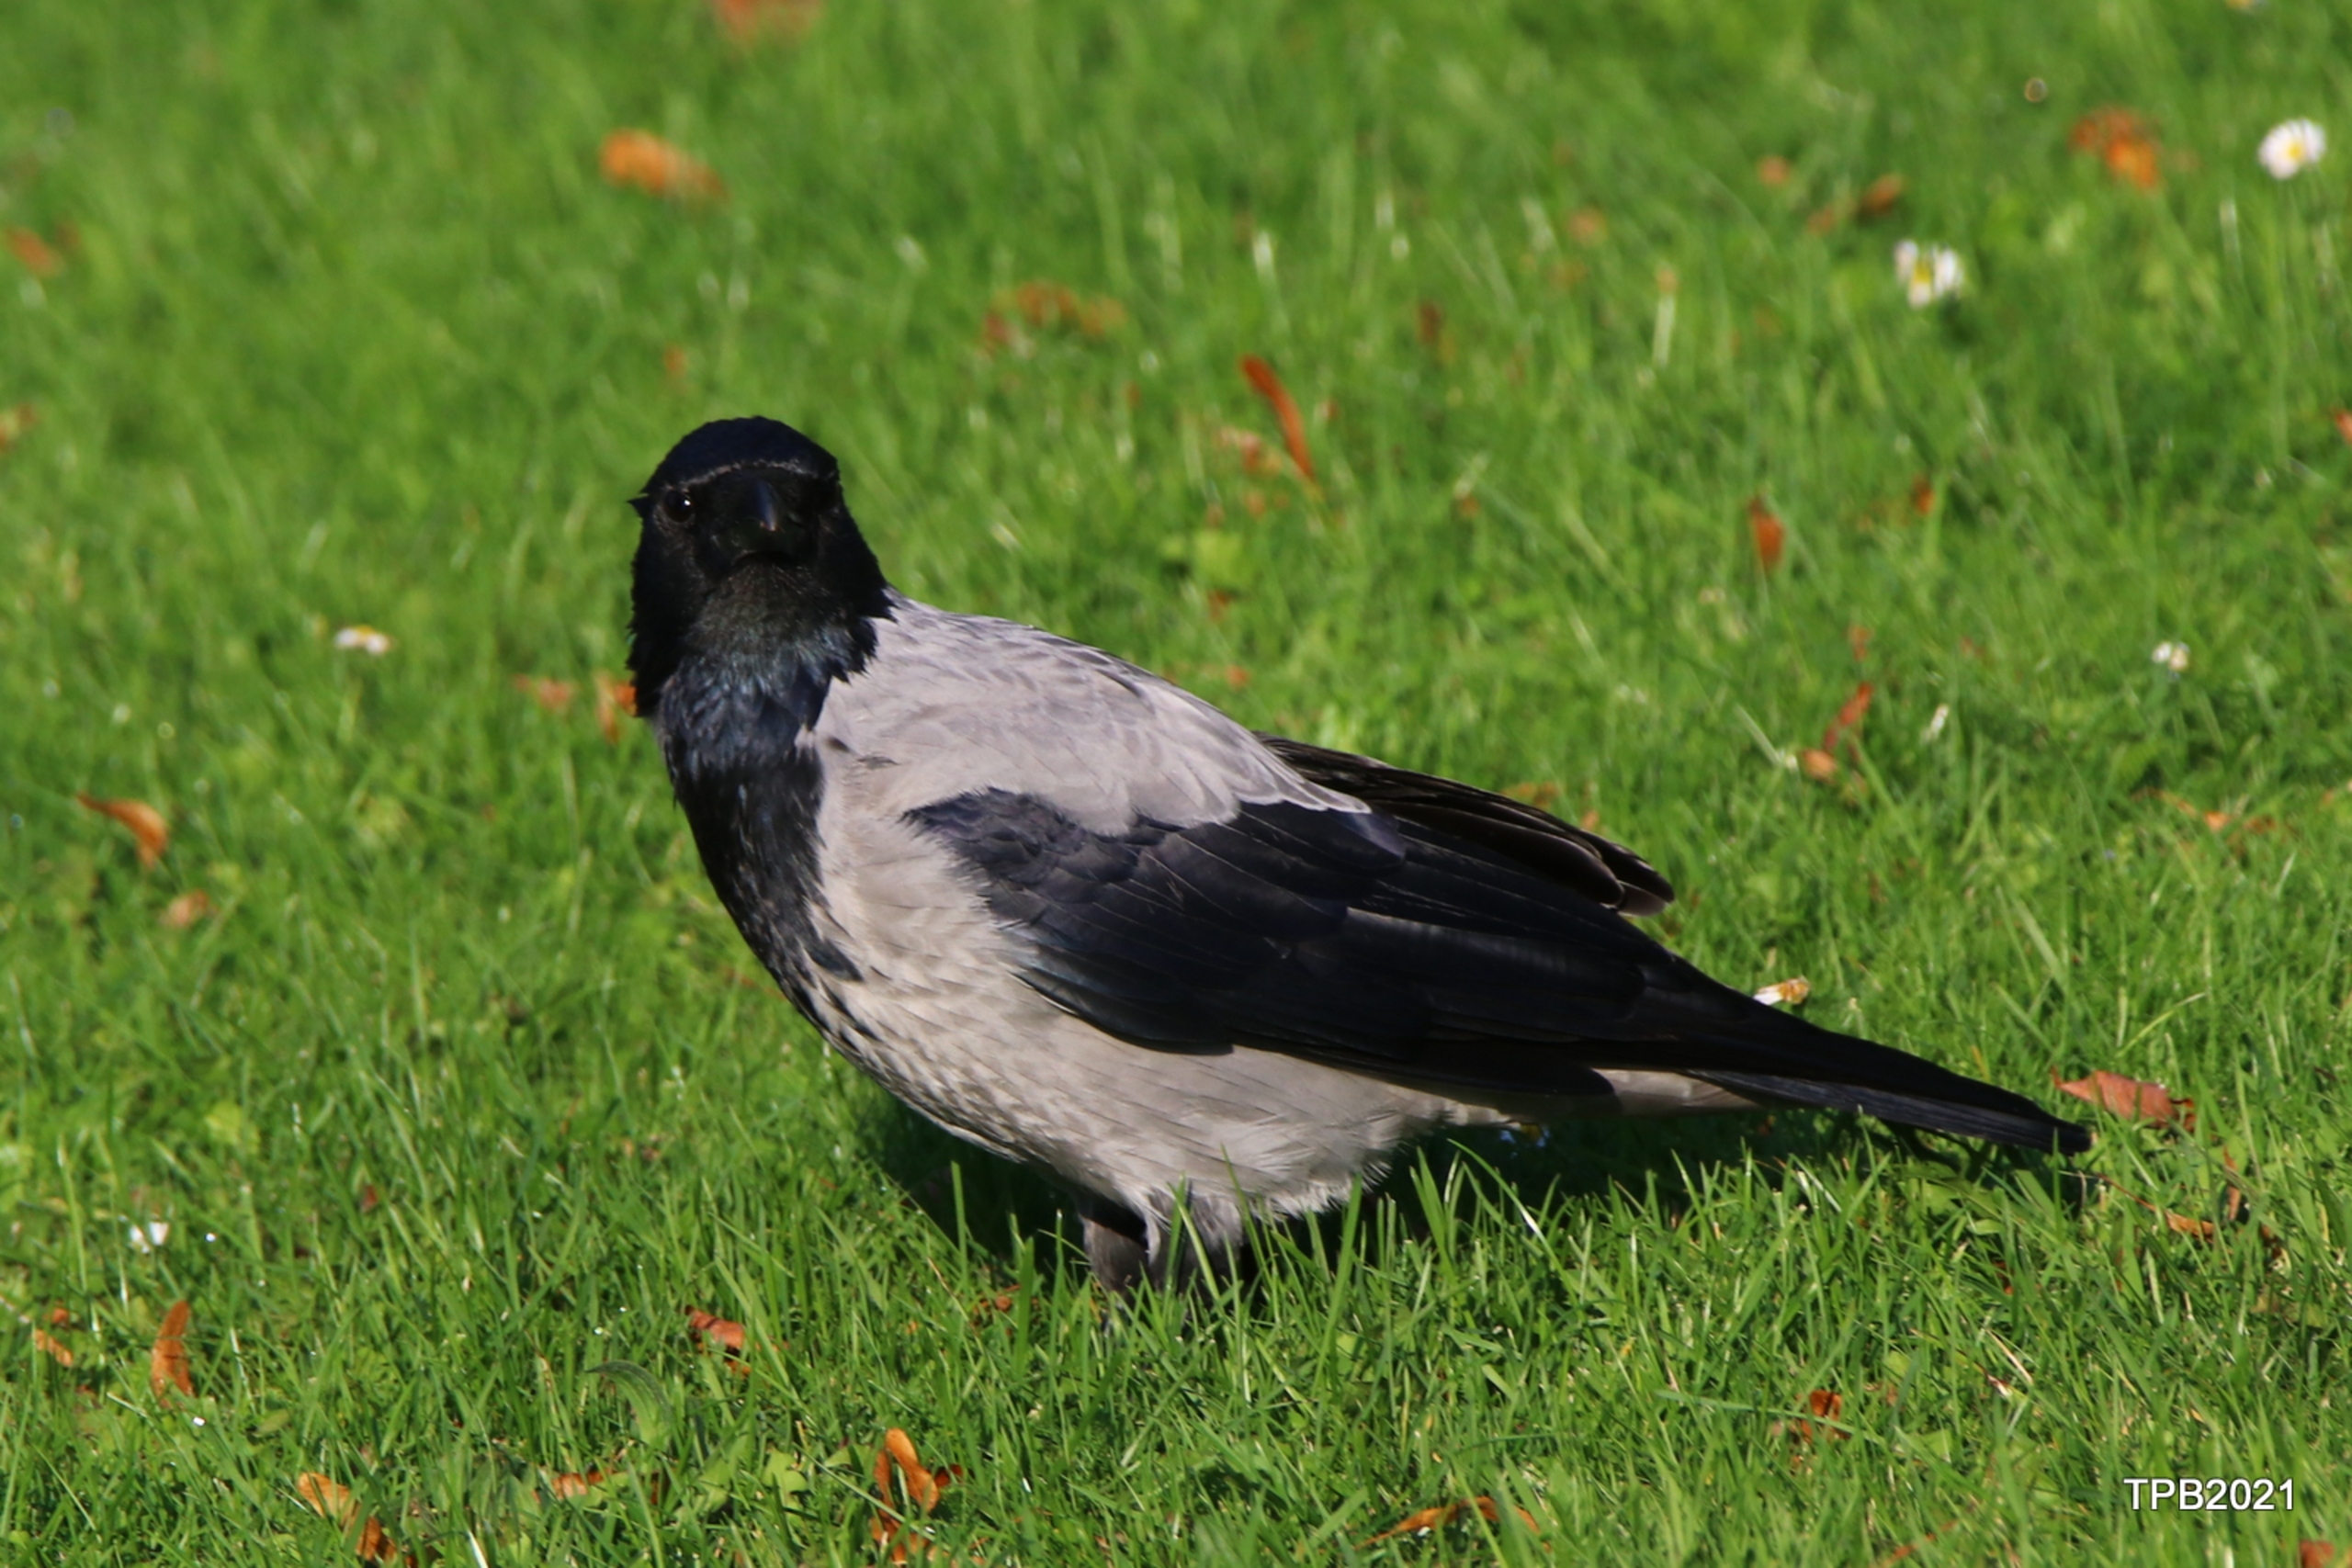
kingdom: Animalia
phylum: Chordata
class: Aves
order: Passeriformes
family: Corvidae
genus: Corvus
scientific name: Corvus cornix
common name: Gråkrage
